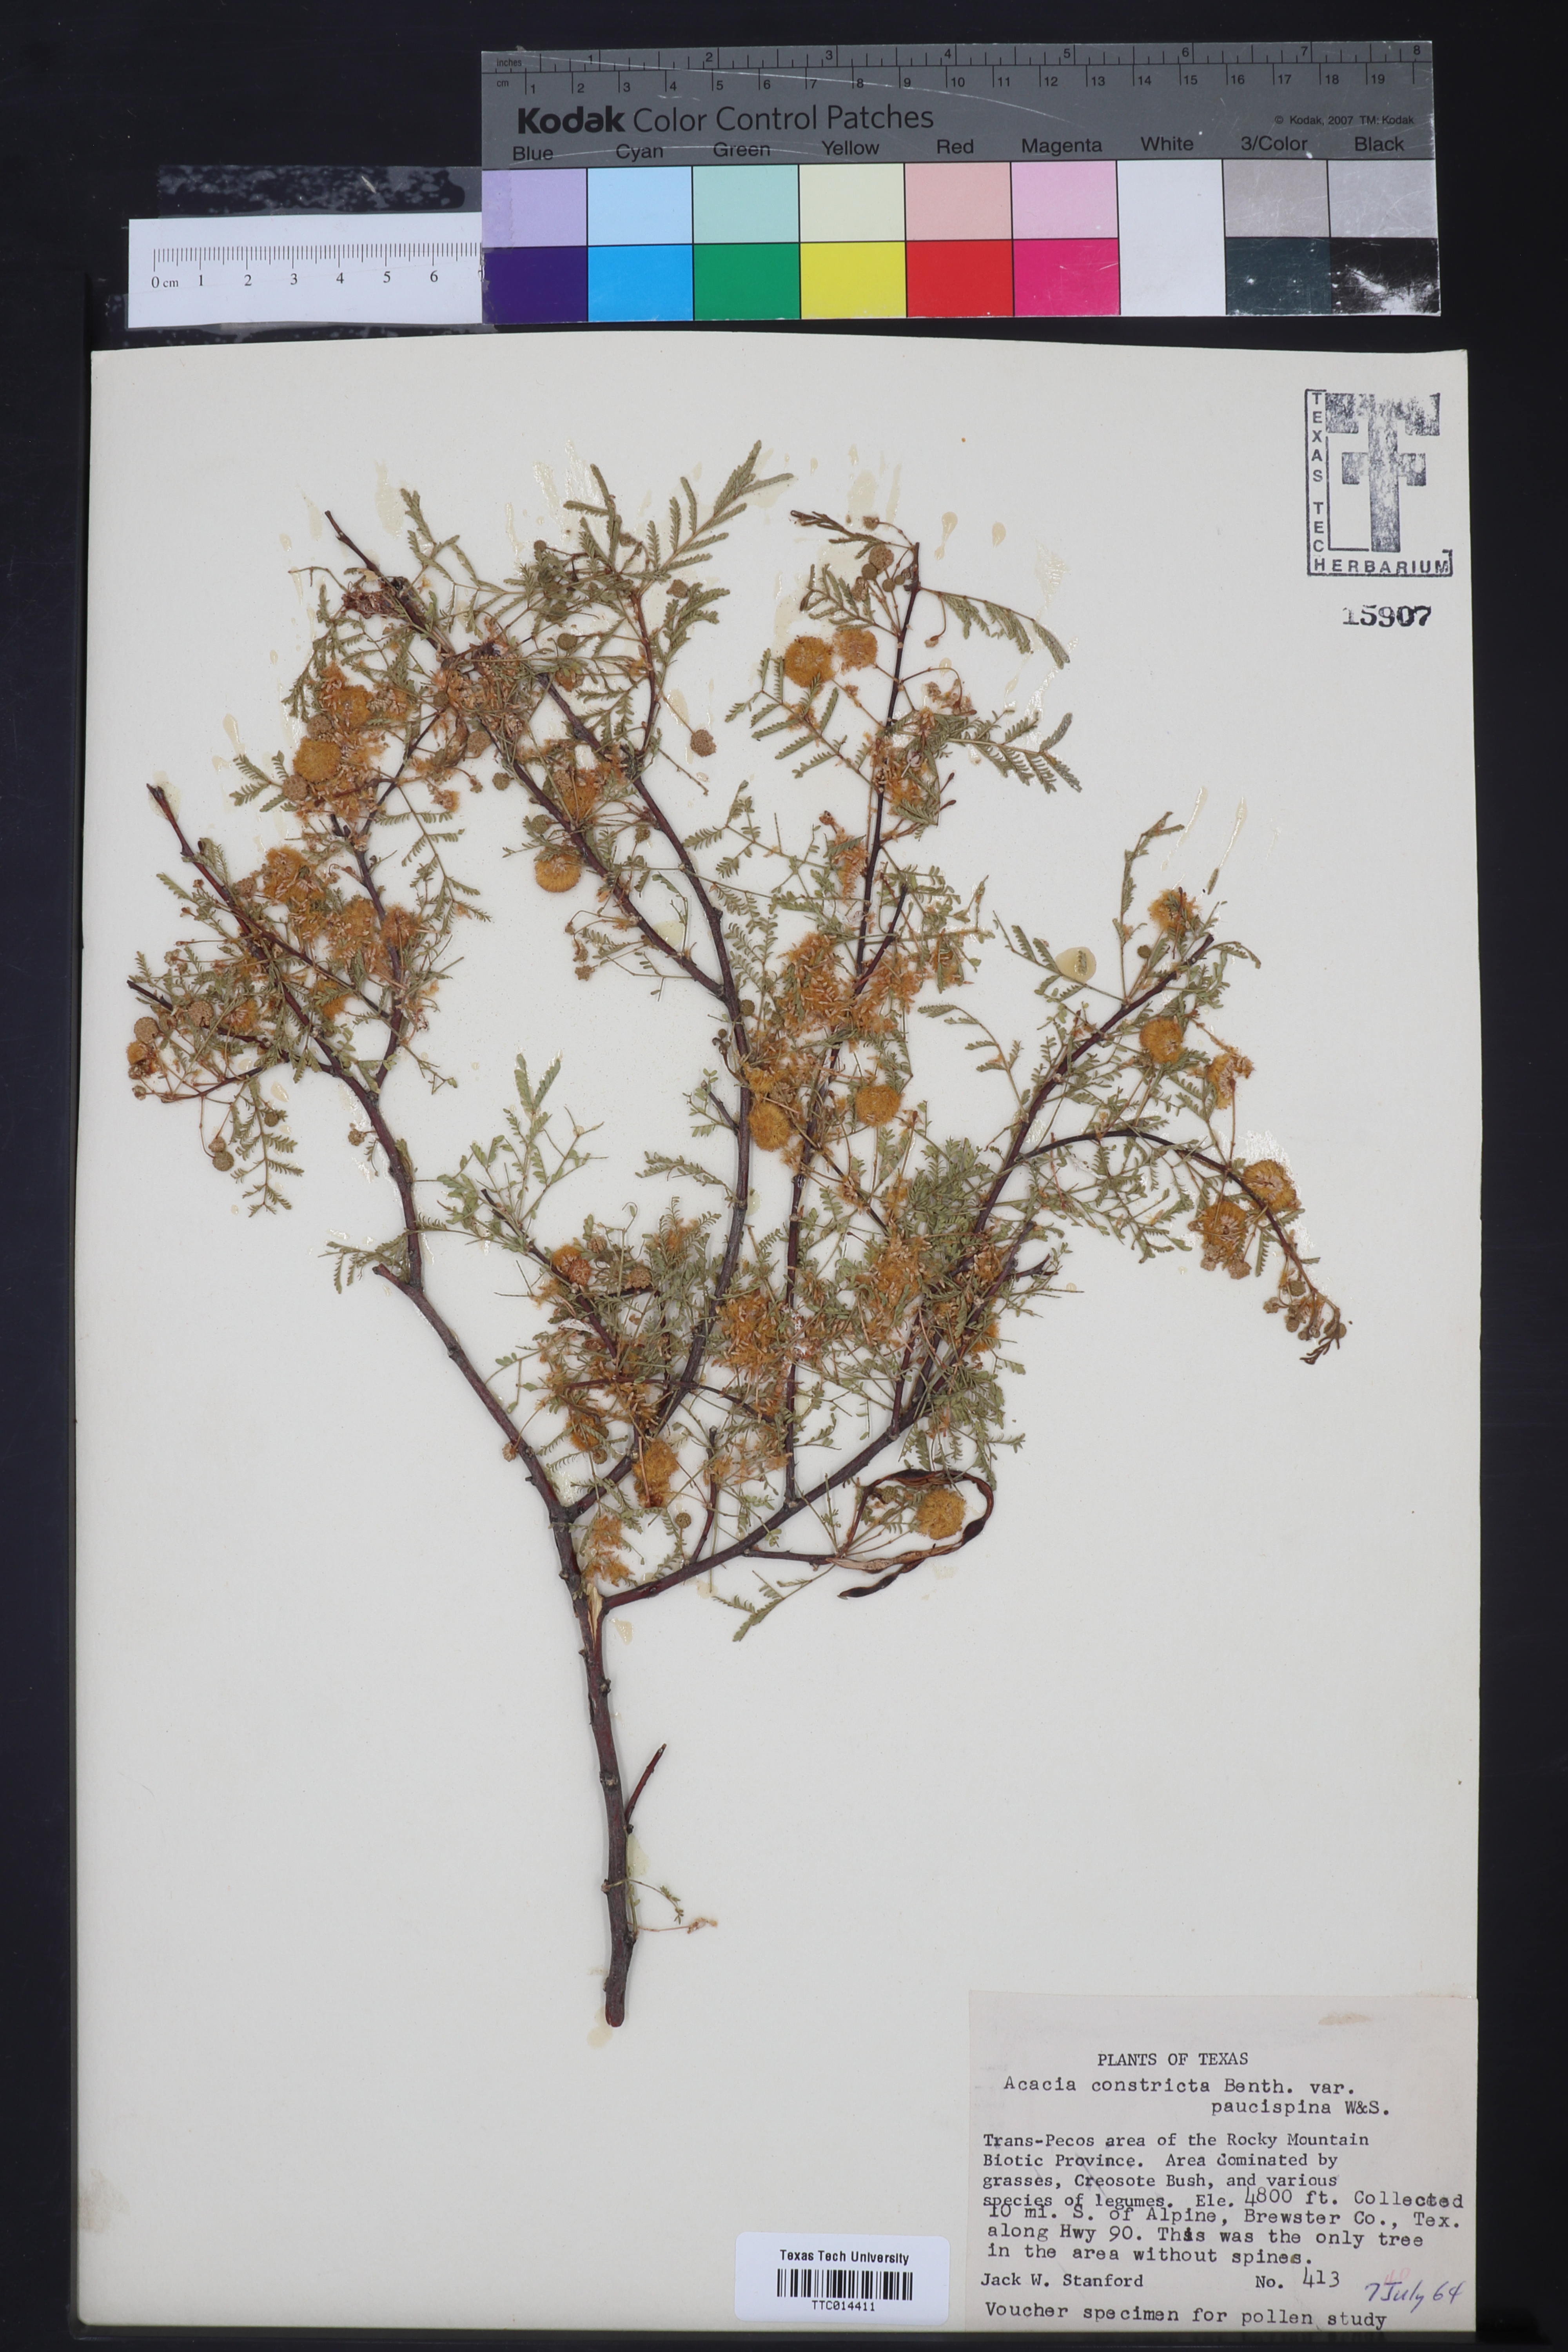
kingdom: Plantae
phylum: Tracheophyta
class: Magnoliopsida
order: Fabales
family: Fabaceae
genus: Vachellia
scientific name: Vachellia constricta
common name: Mescat acacia
